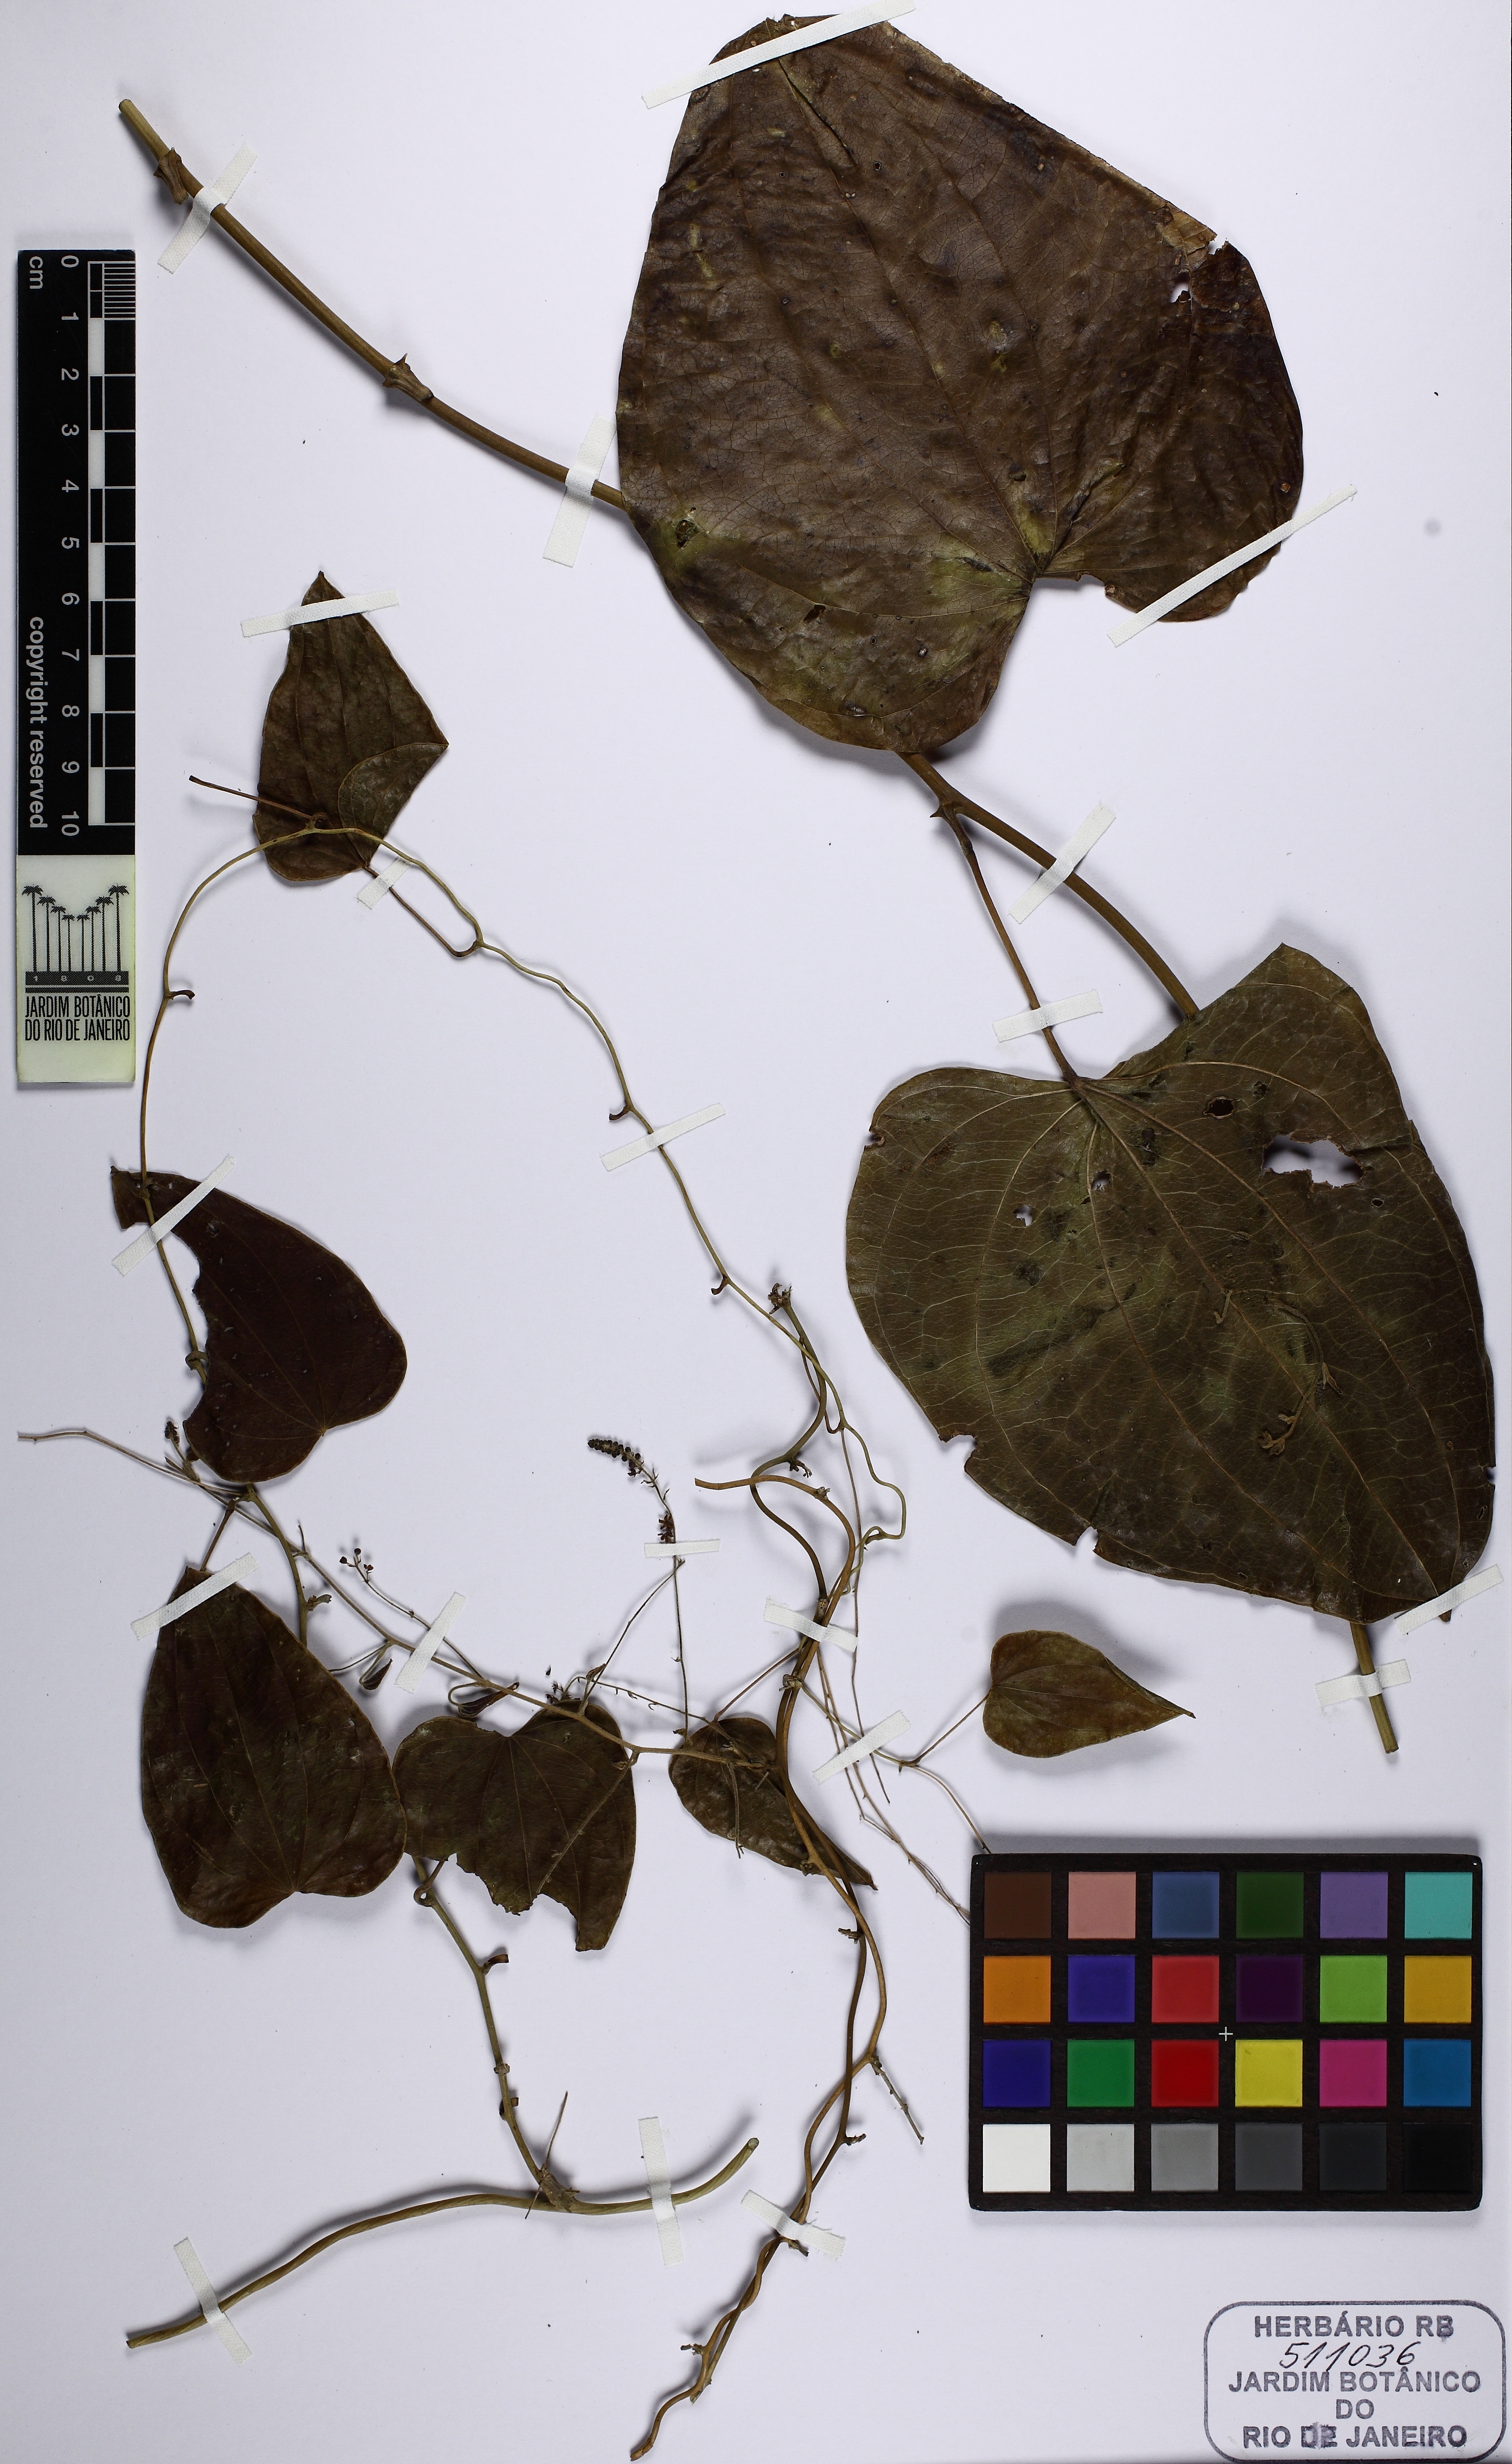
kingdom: Plantae
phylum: Tracheophyta
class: Liliopsida
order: Dioscoreales
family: Dioscoreaceae
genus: Dioscorea
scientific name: Dioscorea flabellispina
